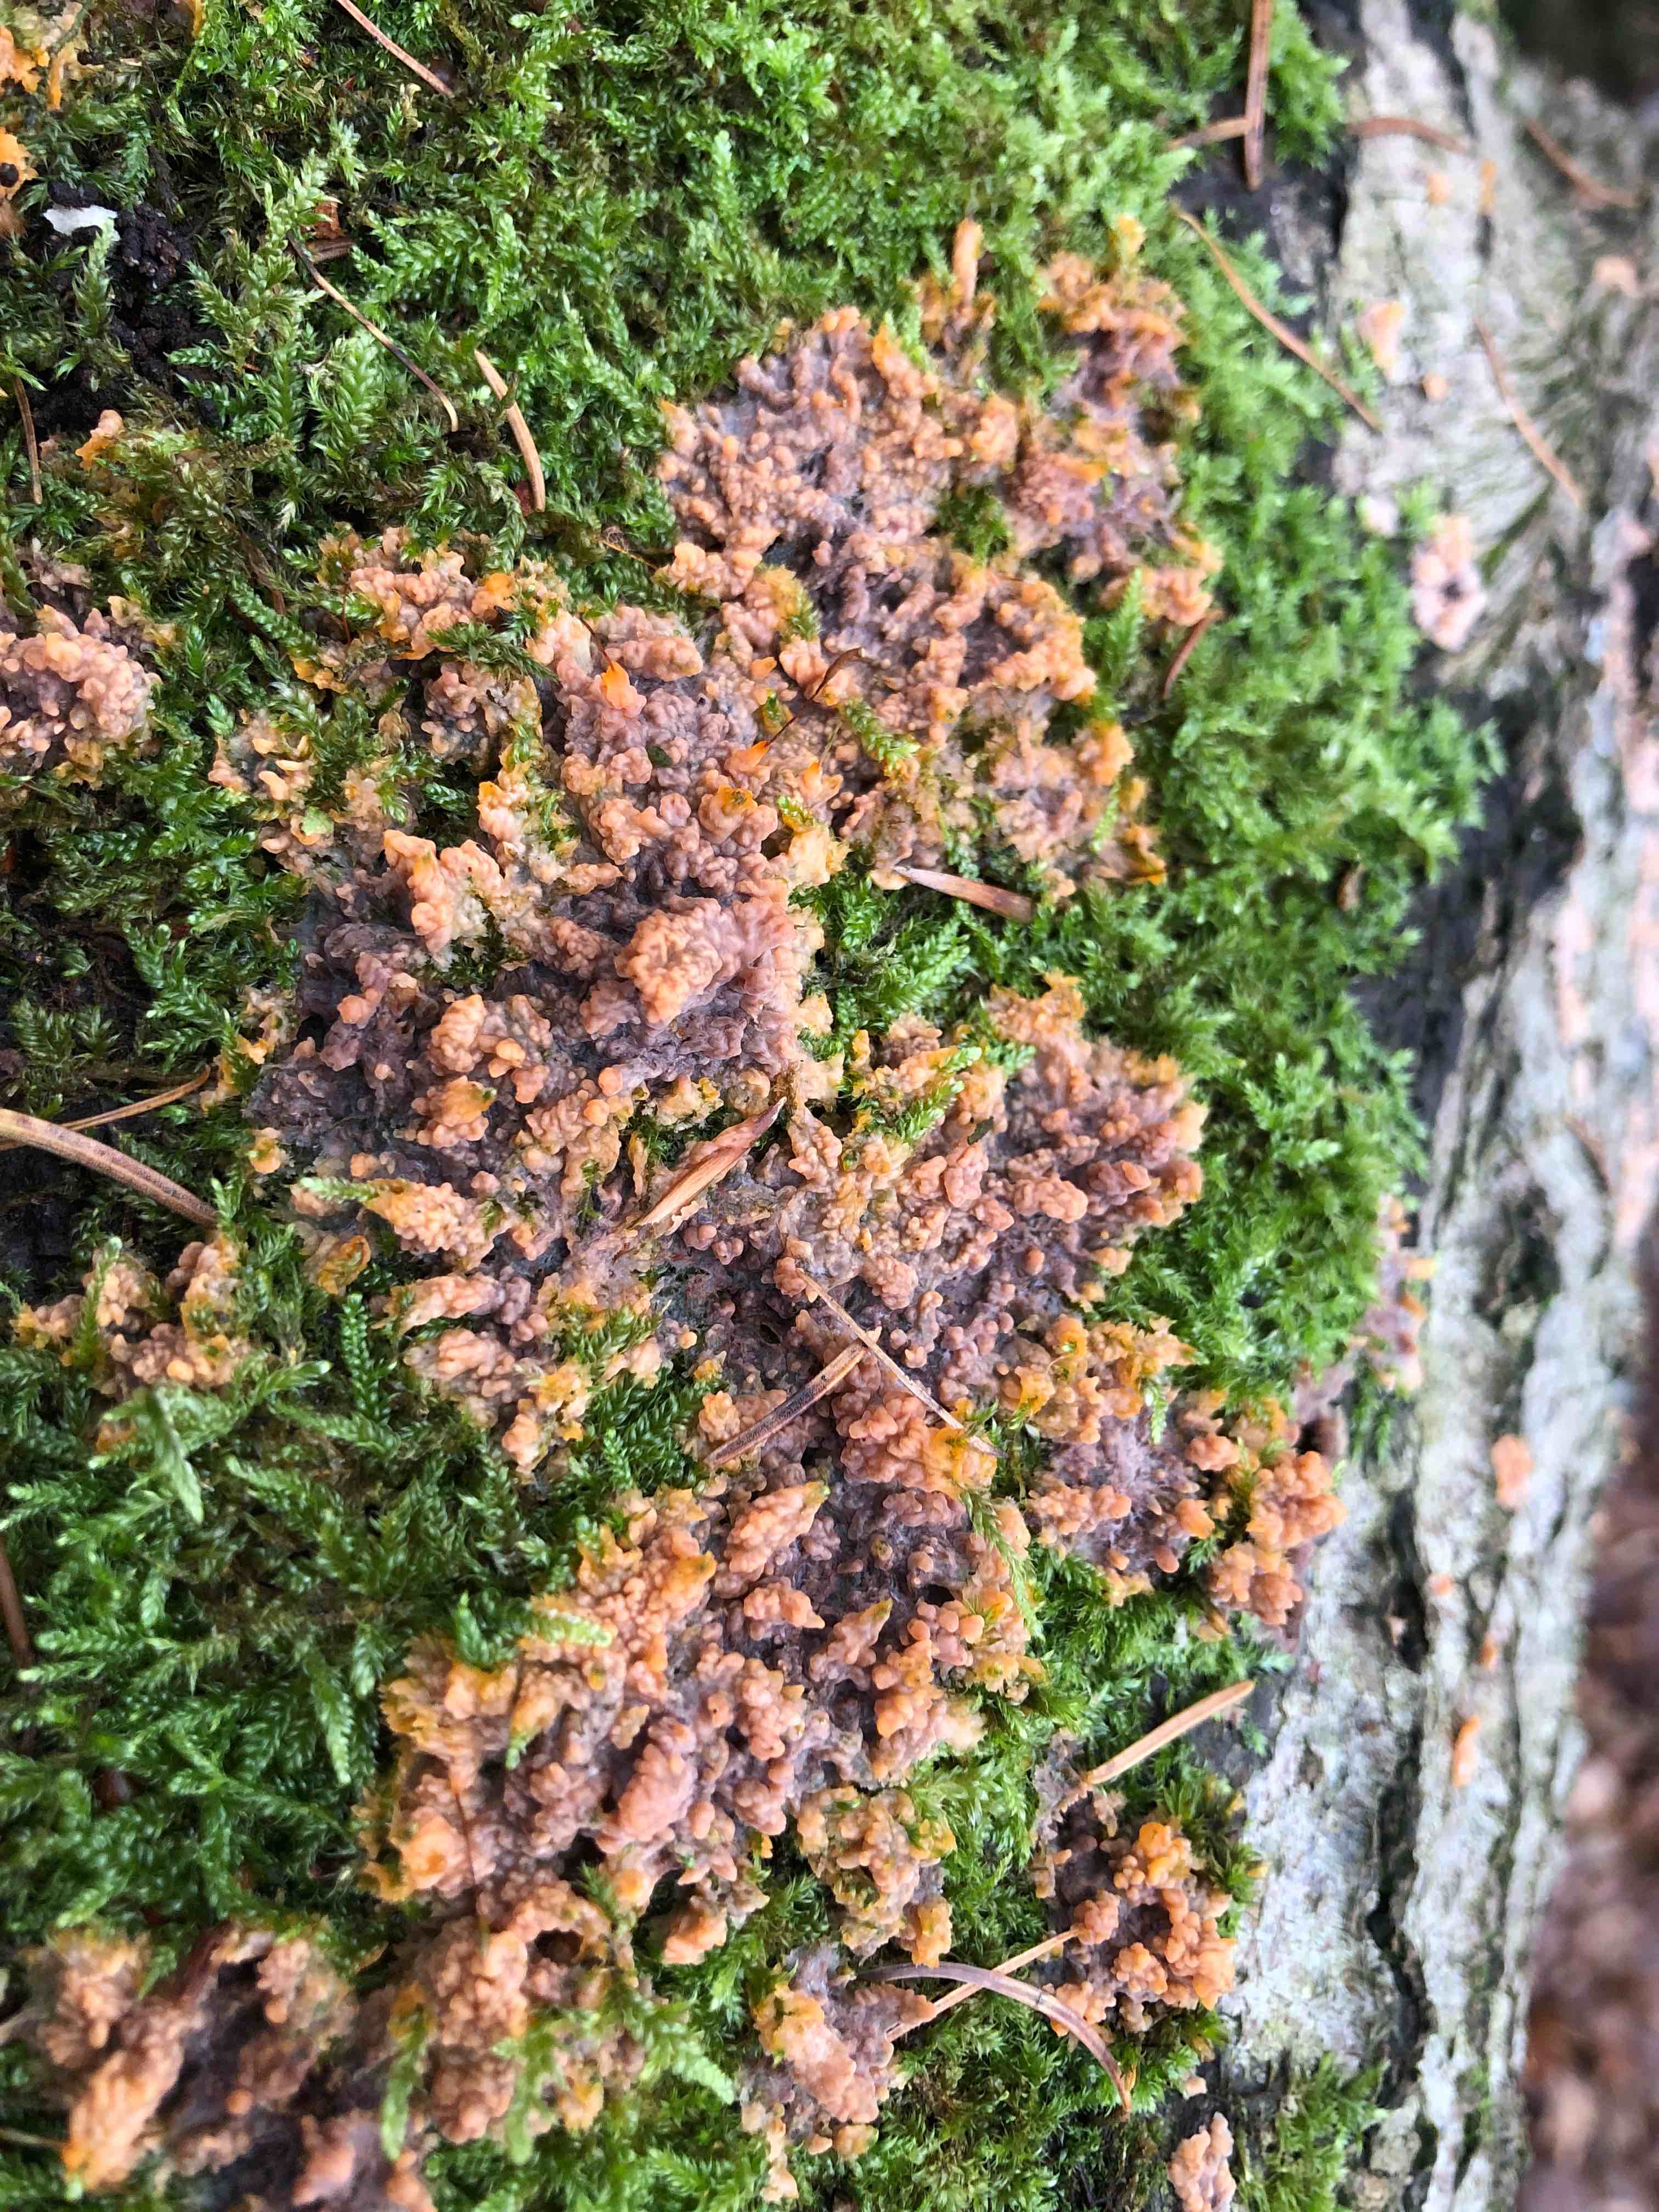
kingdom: Fungi
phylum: Basidiomycota
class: Agaricomycetes
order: Polyporales
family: Meruliaceae
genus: Phlebia
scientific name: Phlebia radiata
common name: stråle-åresvamp
